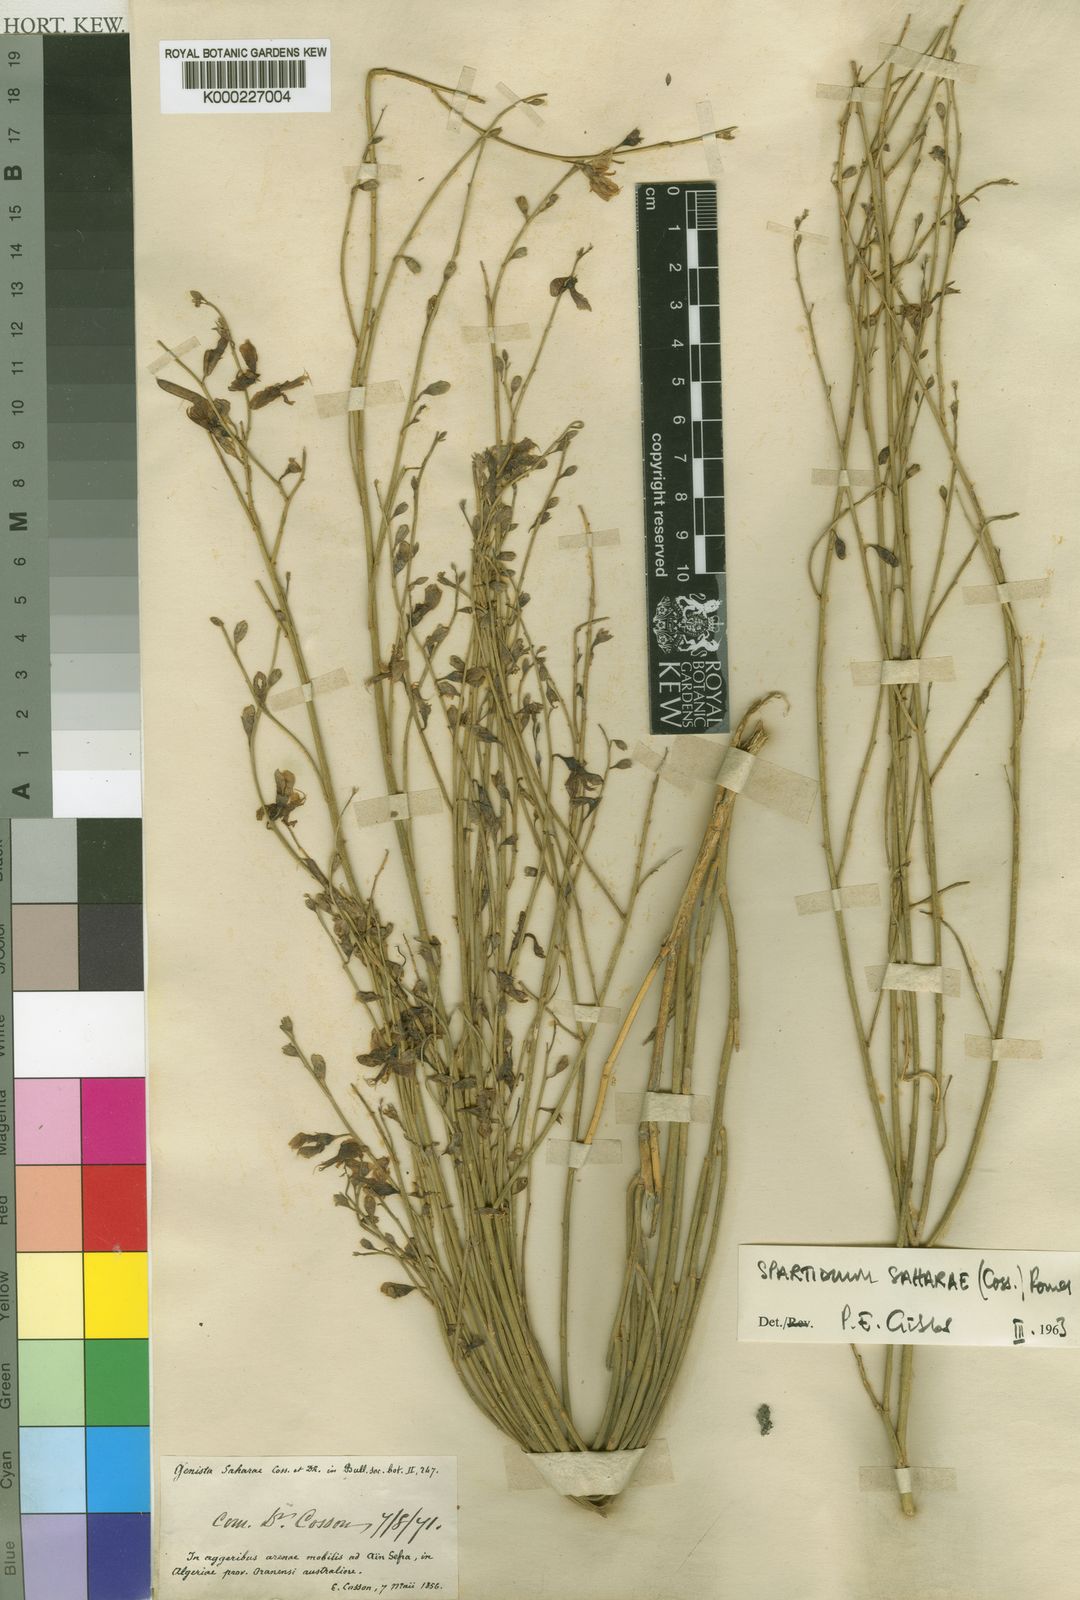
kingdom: Plantae
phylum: Tracheophyta
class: Magnoliopsida
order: Fabales
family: Fabaceae
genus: Calobota
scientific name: Calobota saharae
